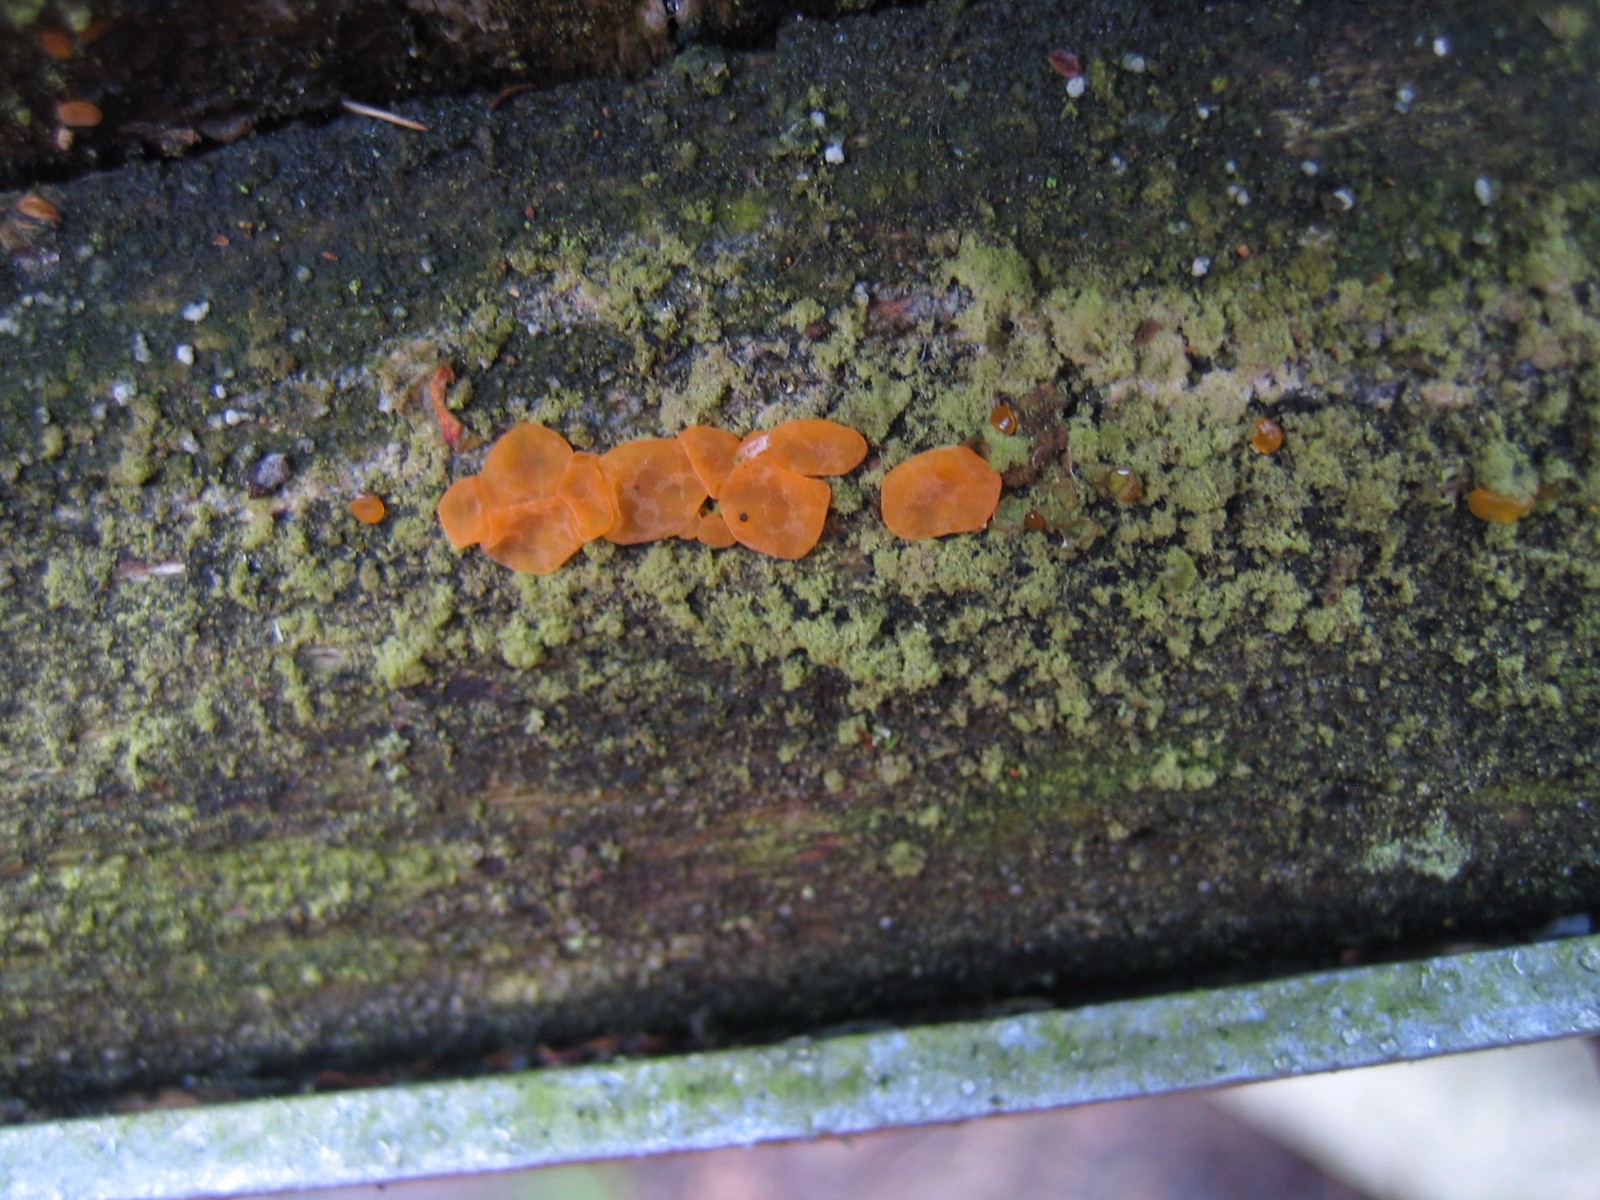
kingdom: Fungi
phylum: Basidiomycota
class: Dacrymycetes
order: Dacrymycetales
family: Dacrymycetaceae
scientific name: Dacrymycetaceae
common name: tåresvampfamilien
